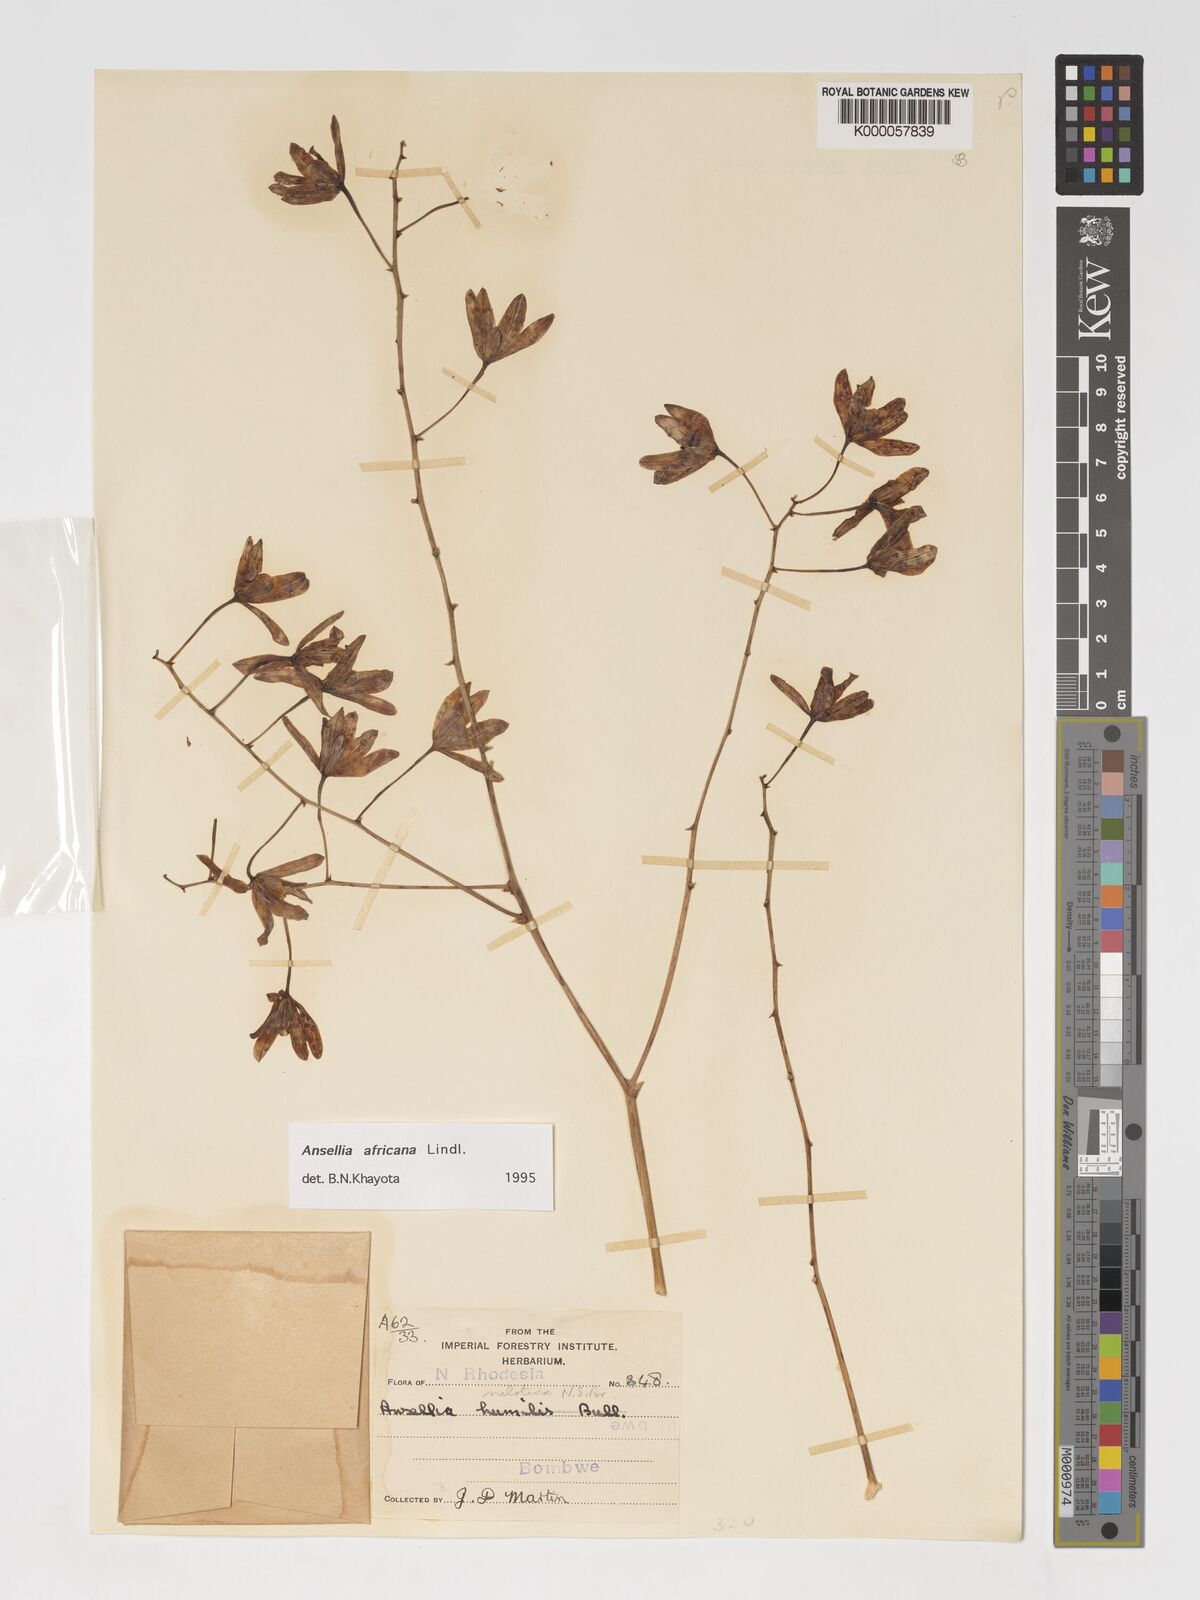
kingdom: Plantae
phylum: Tracheophyta
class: Liliopsida
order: Asparagales
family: Orchidaceae
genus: Ansellia
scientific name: Ansellia africana
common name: African ansellia
